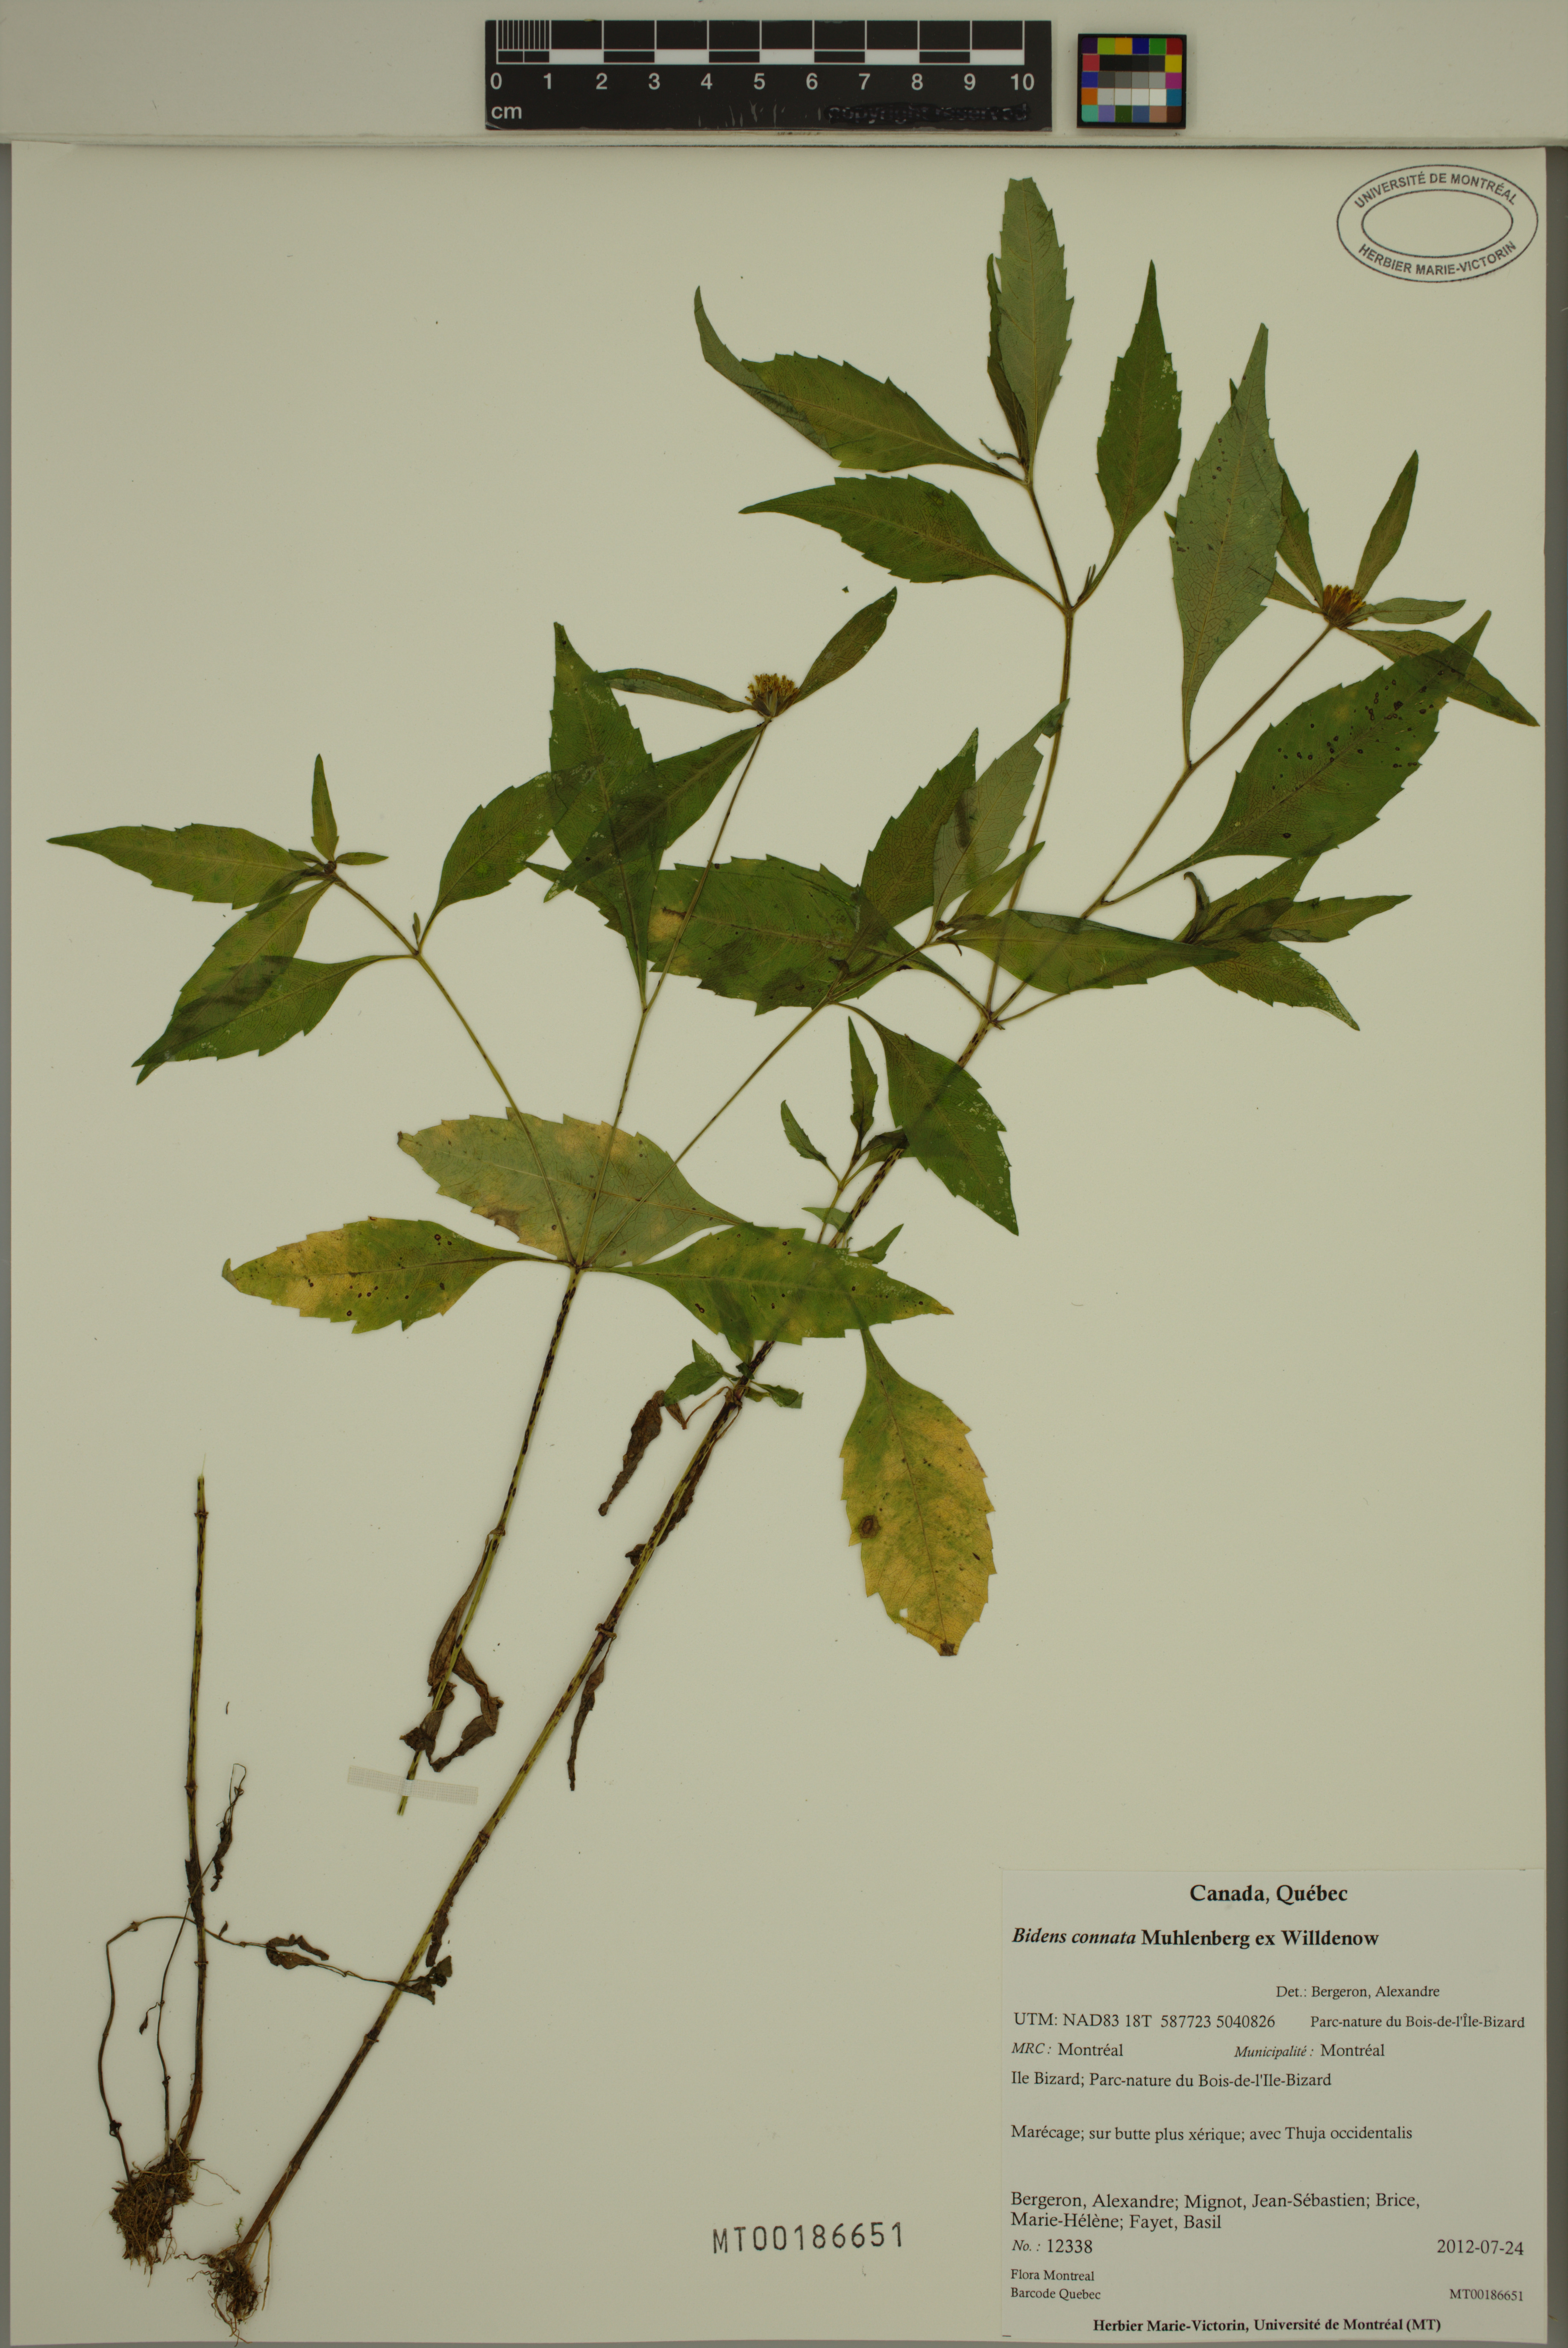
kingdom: Plantae
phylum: Tracheophyta
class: Magnoliopsida
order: Asterales
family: Asteraceae
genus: Bidens
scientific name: Bidens connata
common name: London bur-marigold
